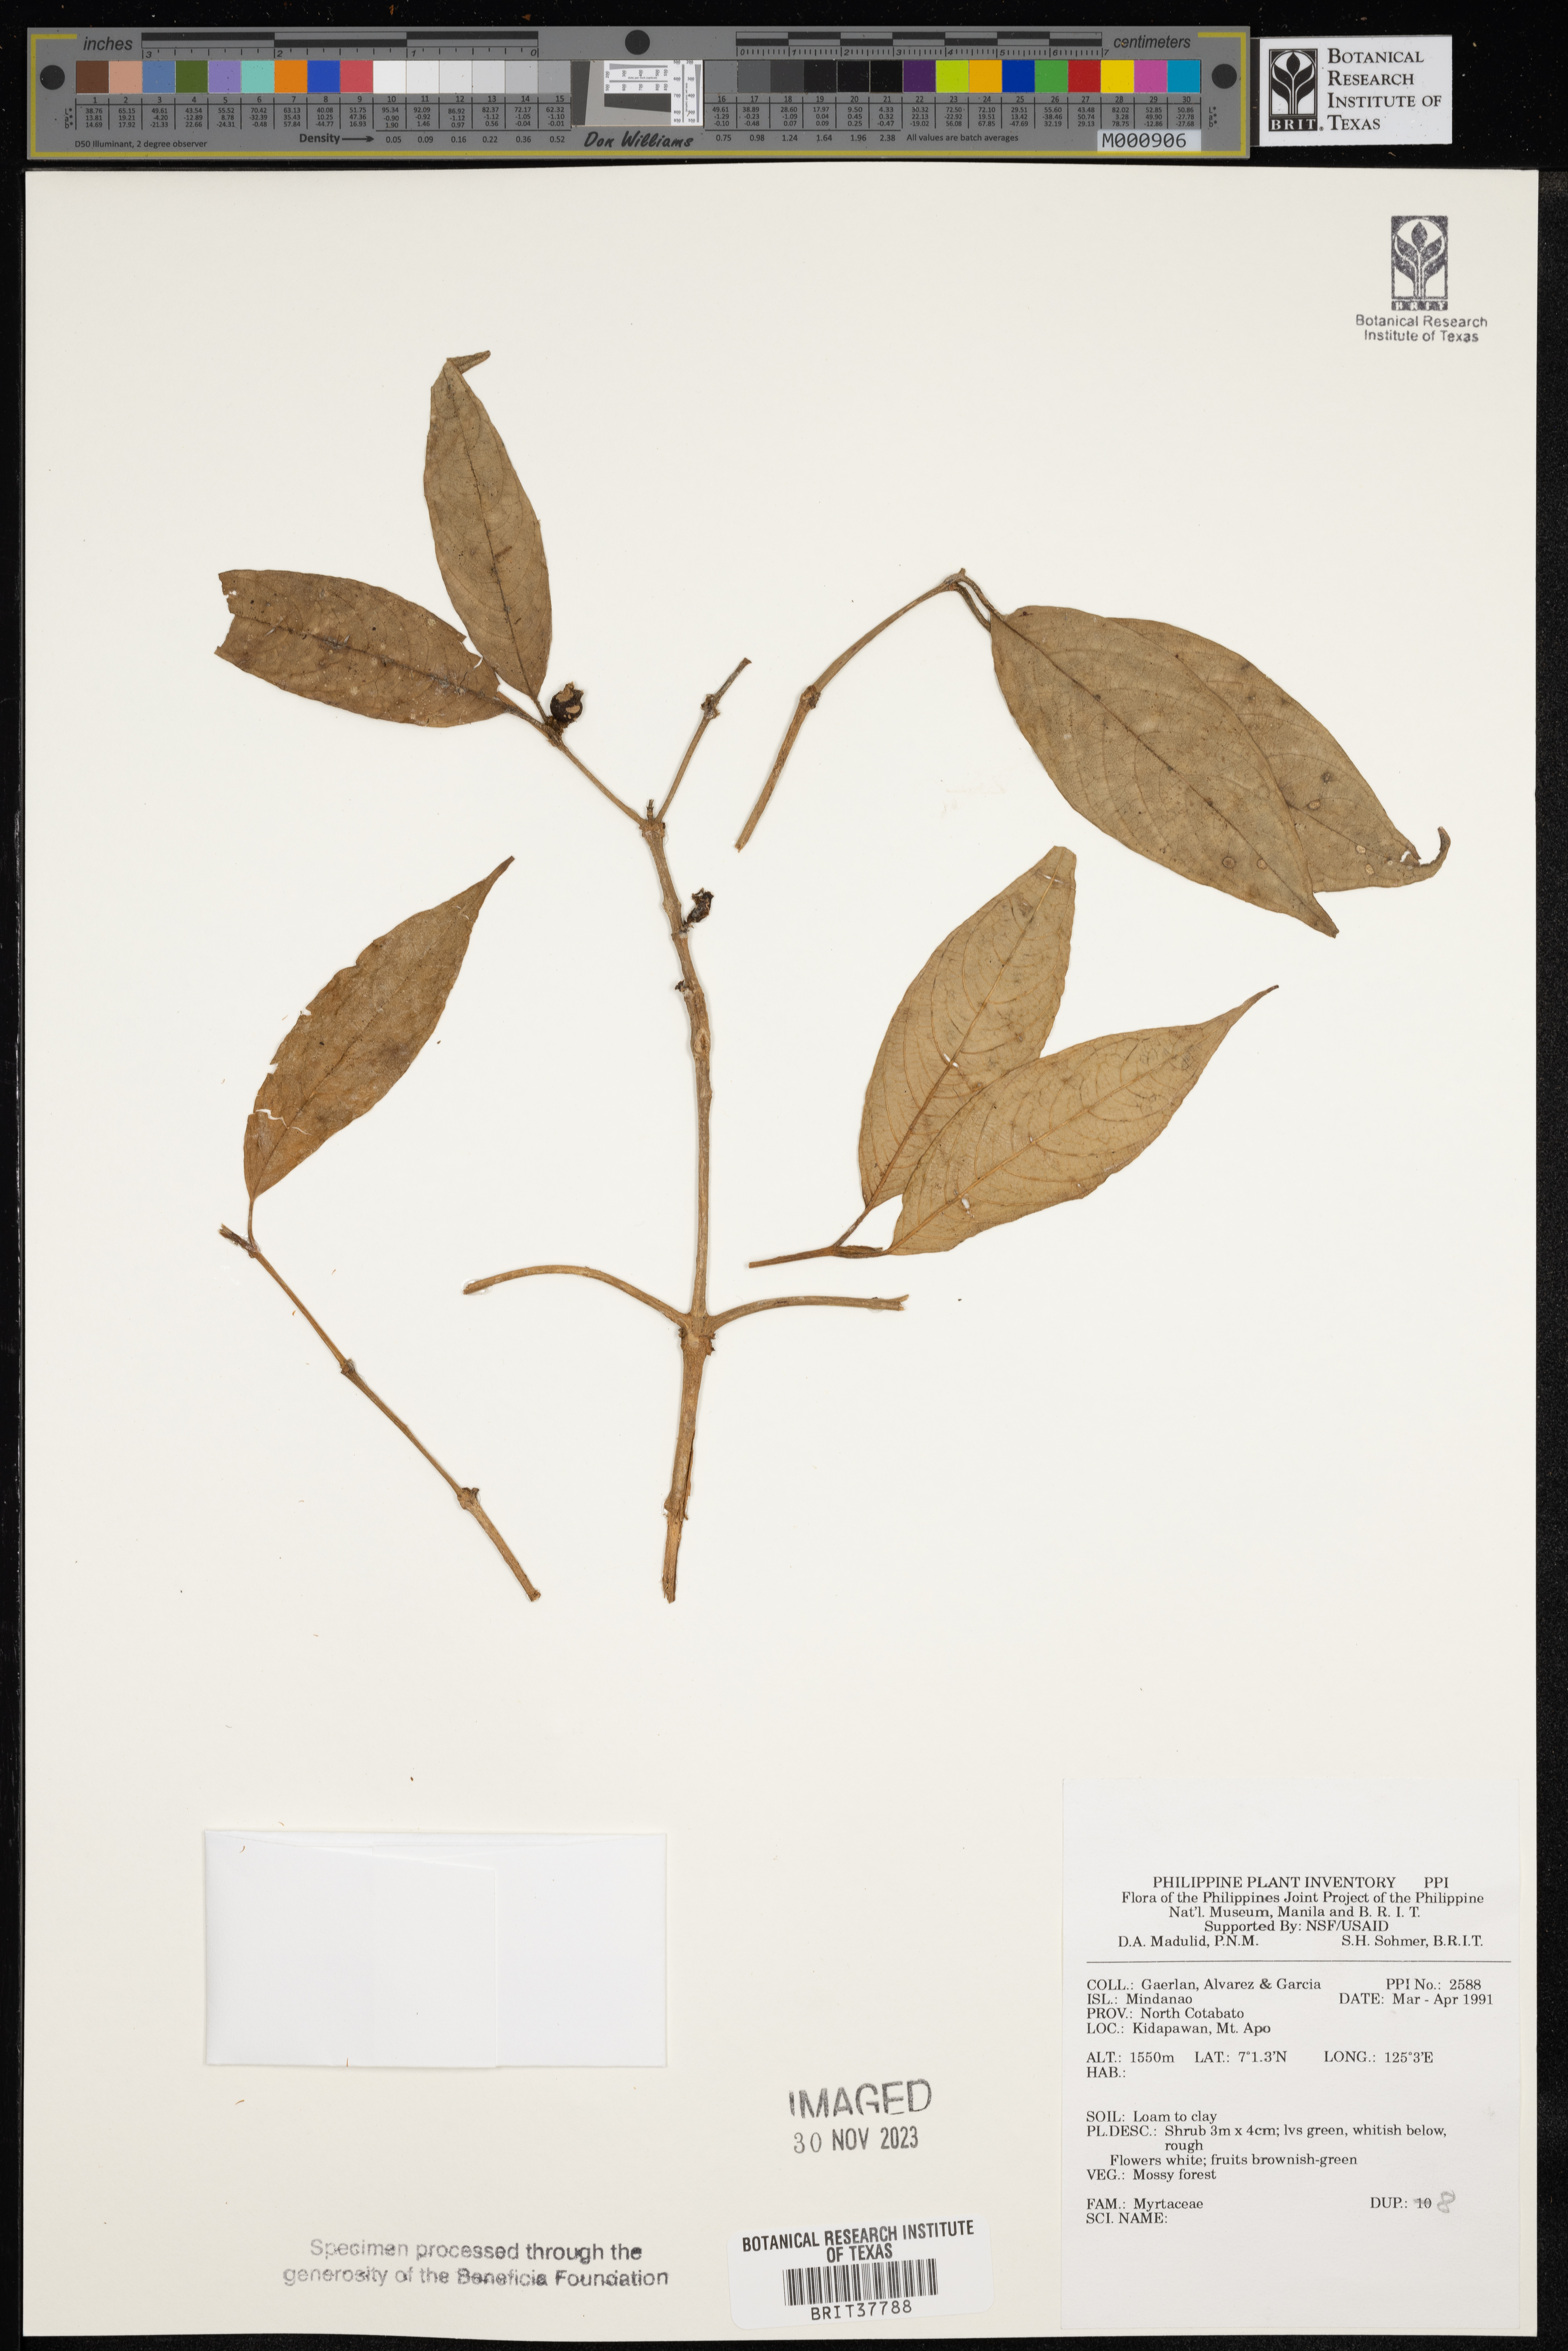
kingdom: Plantae
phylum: Tracheophyta
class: Magnoliopsida
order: Myrtales
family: Myrtaceae
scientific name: Myrtaceae
